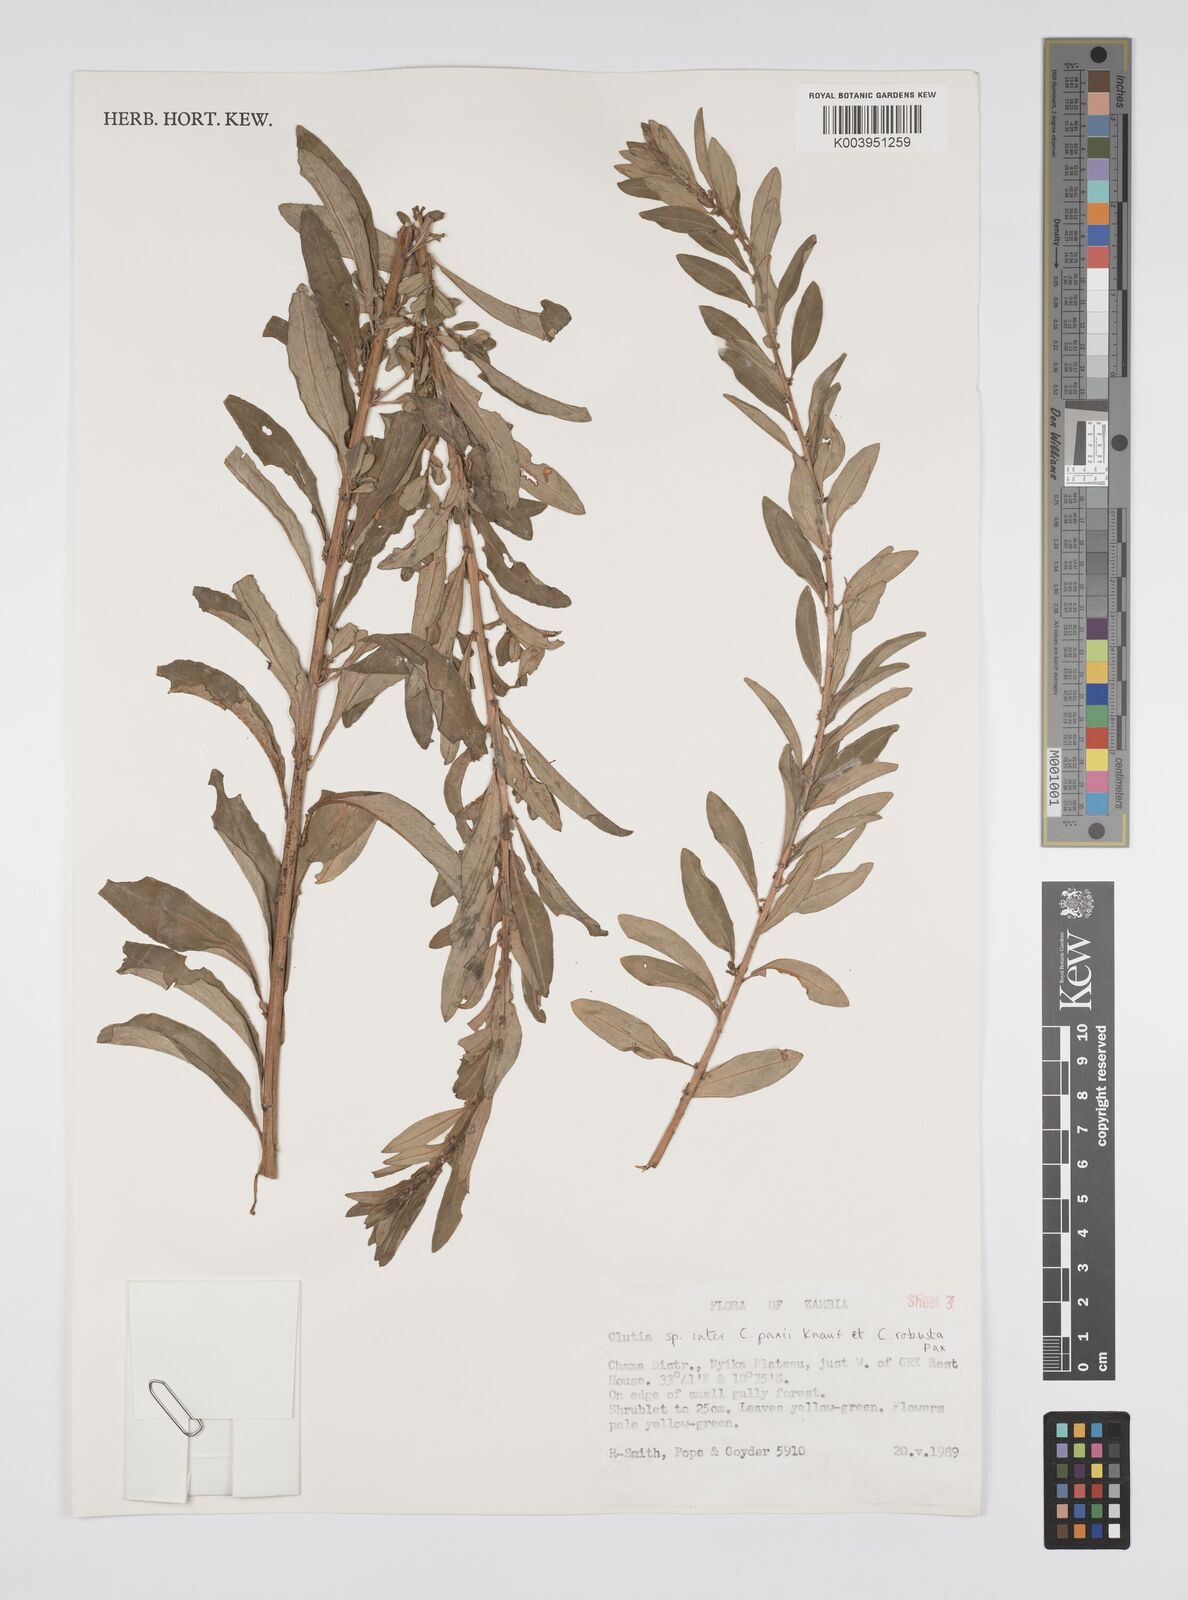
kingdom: Plantae
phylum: Tracheophyta
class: Magnoliopsida
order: Malpighiales
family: Peraceae
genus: Clutia
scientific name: Clutia paxii
